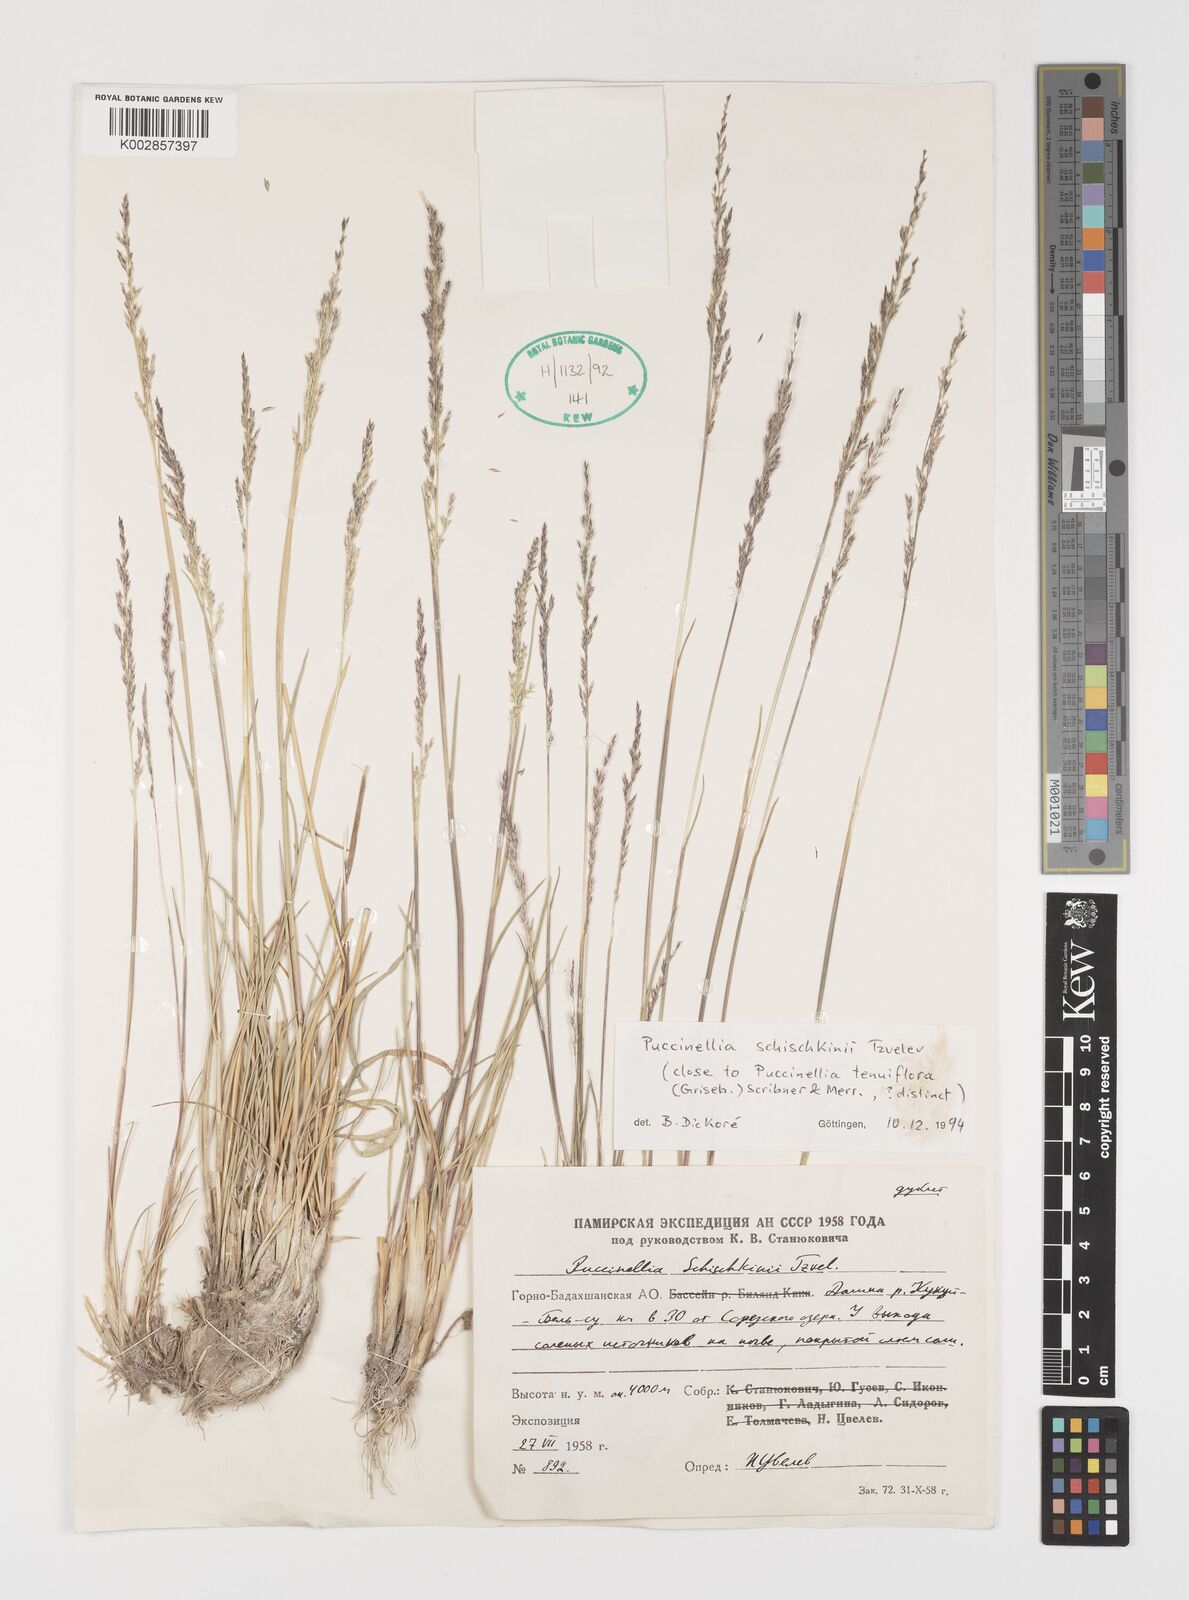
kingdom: Plantae
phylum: Tracheophyta
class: Liliopsida
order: Poales
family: Poaceae
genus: Puccinellia
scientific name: Puccinellia schischkinii
